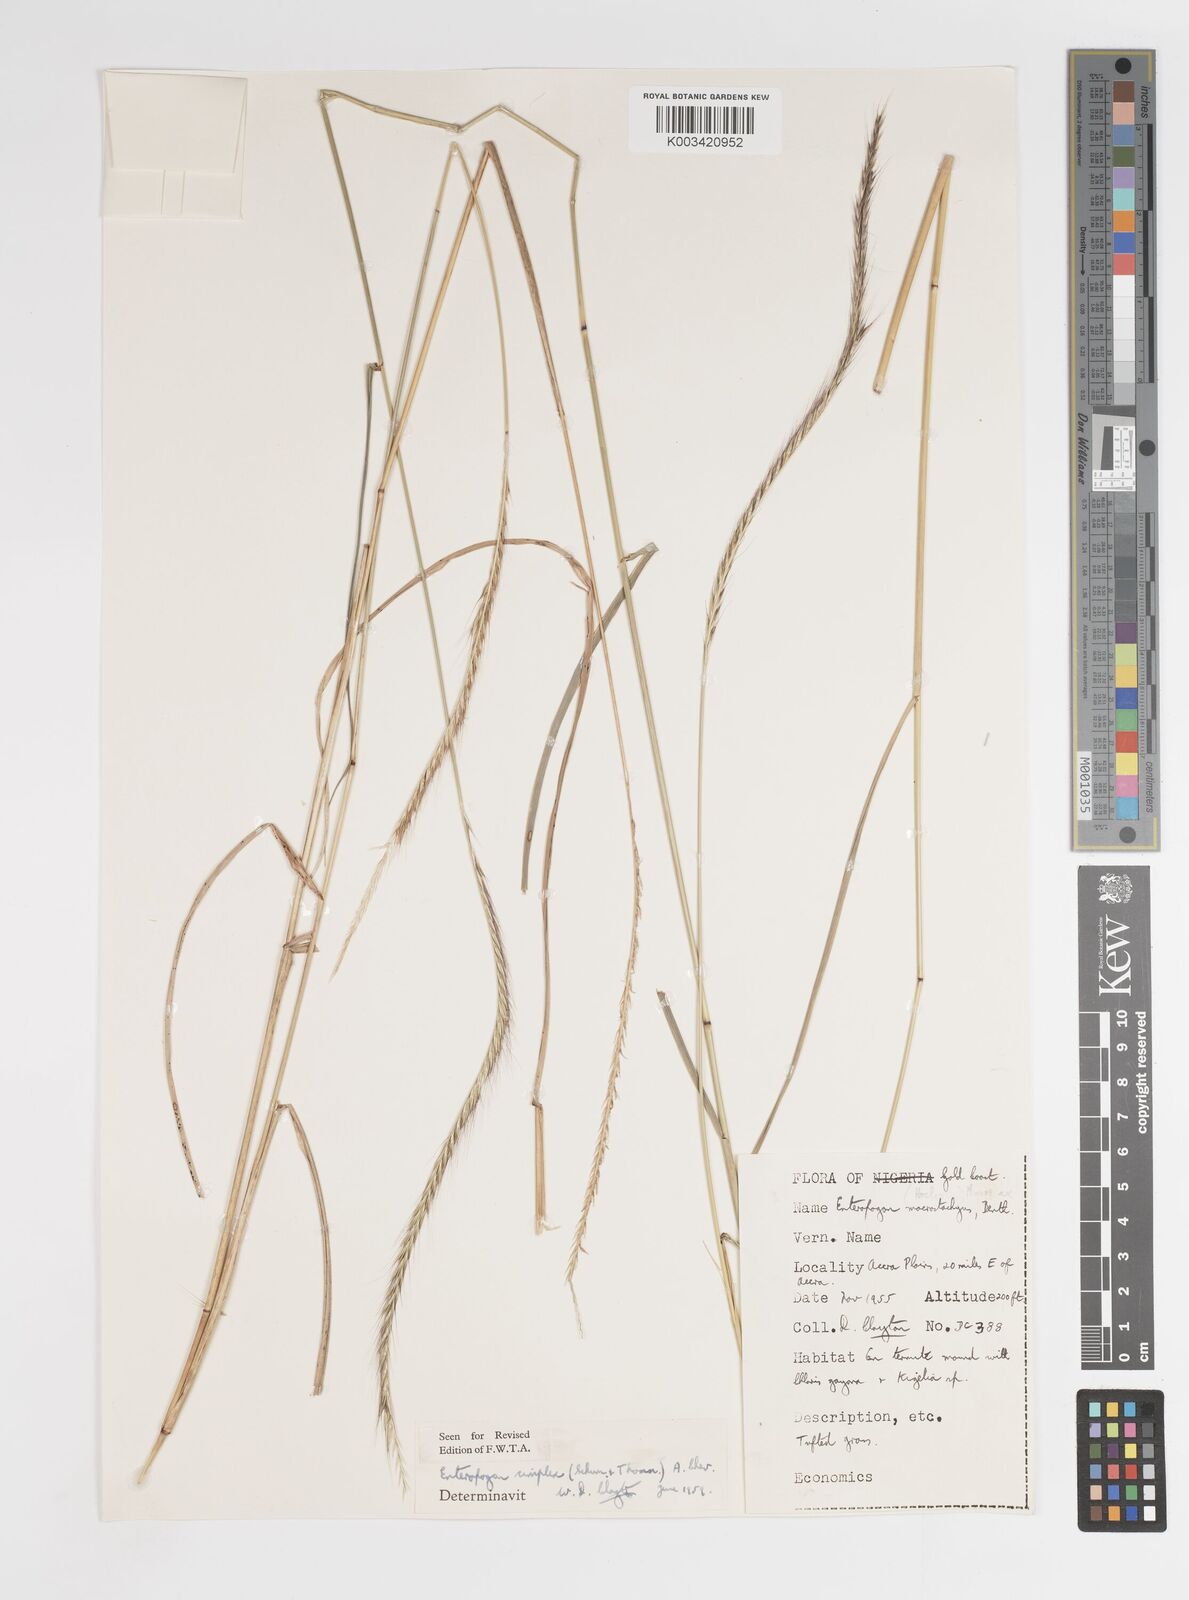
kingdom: Plantae
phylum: Tracheophyta
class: Liliopsida
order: Poales
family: Poaceae
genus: Enteropogon
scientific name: Enteropogon macrostachyus
